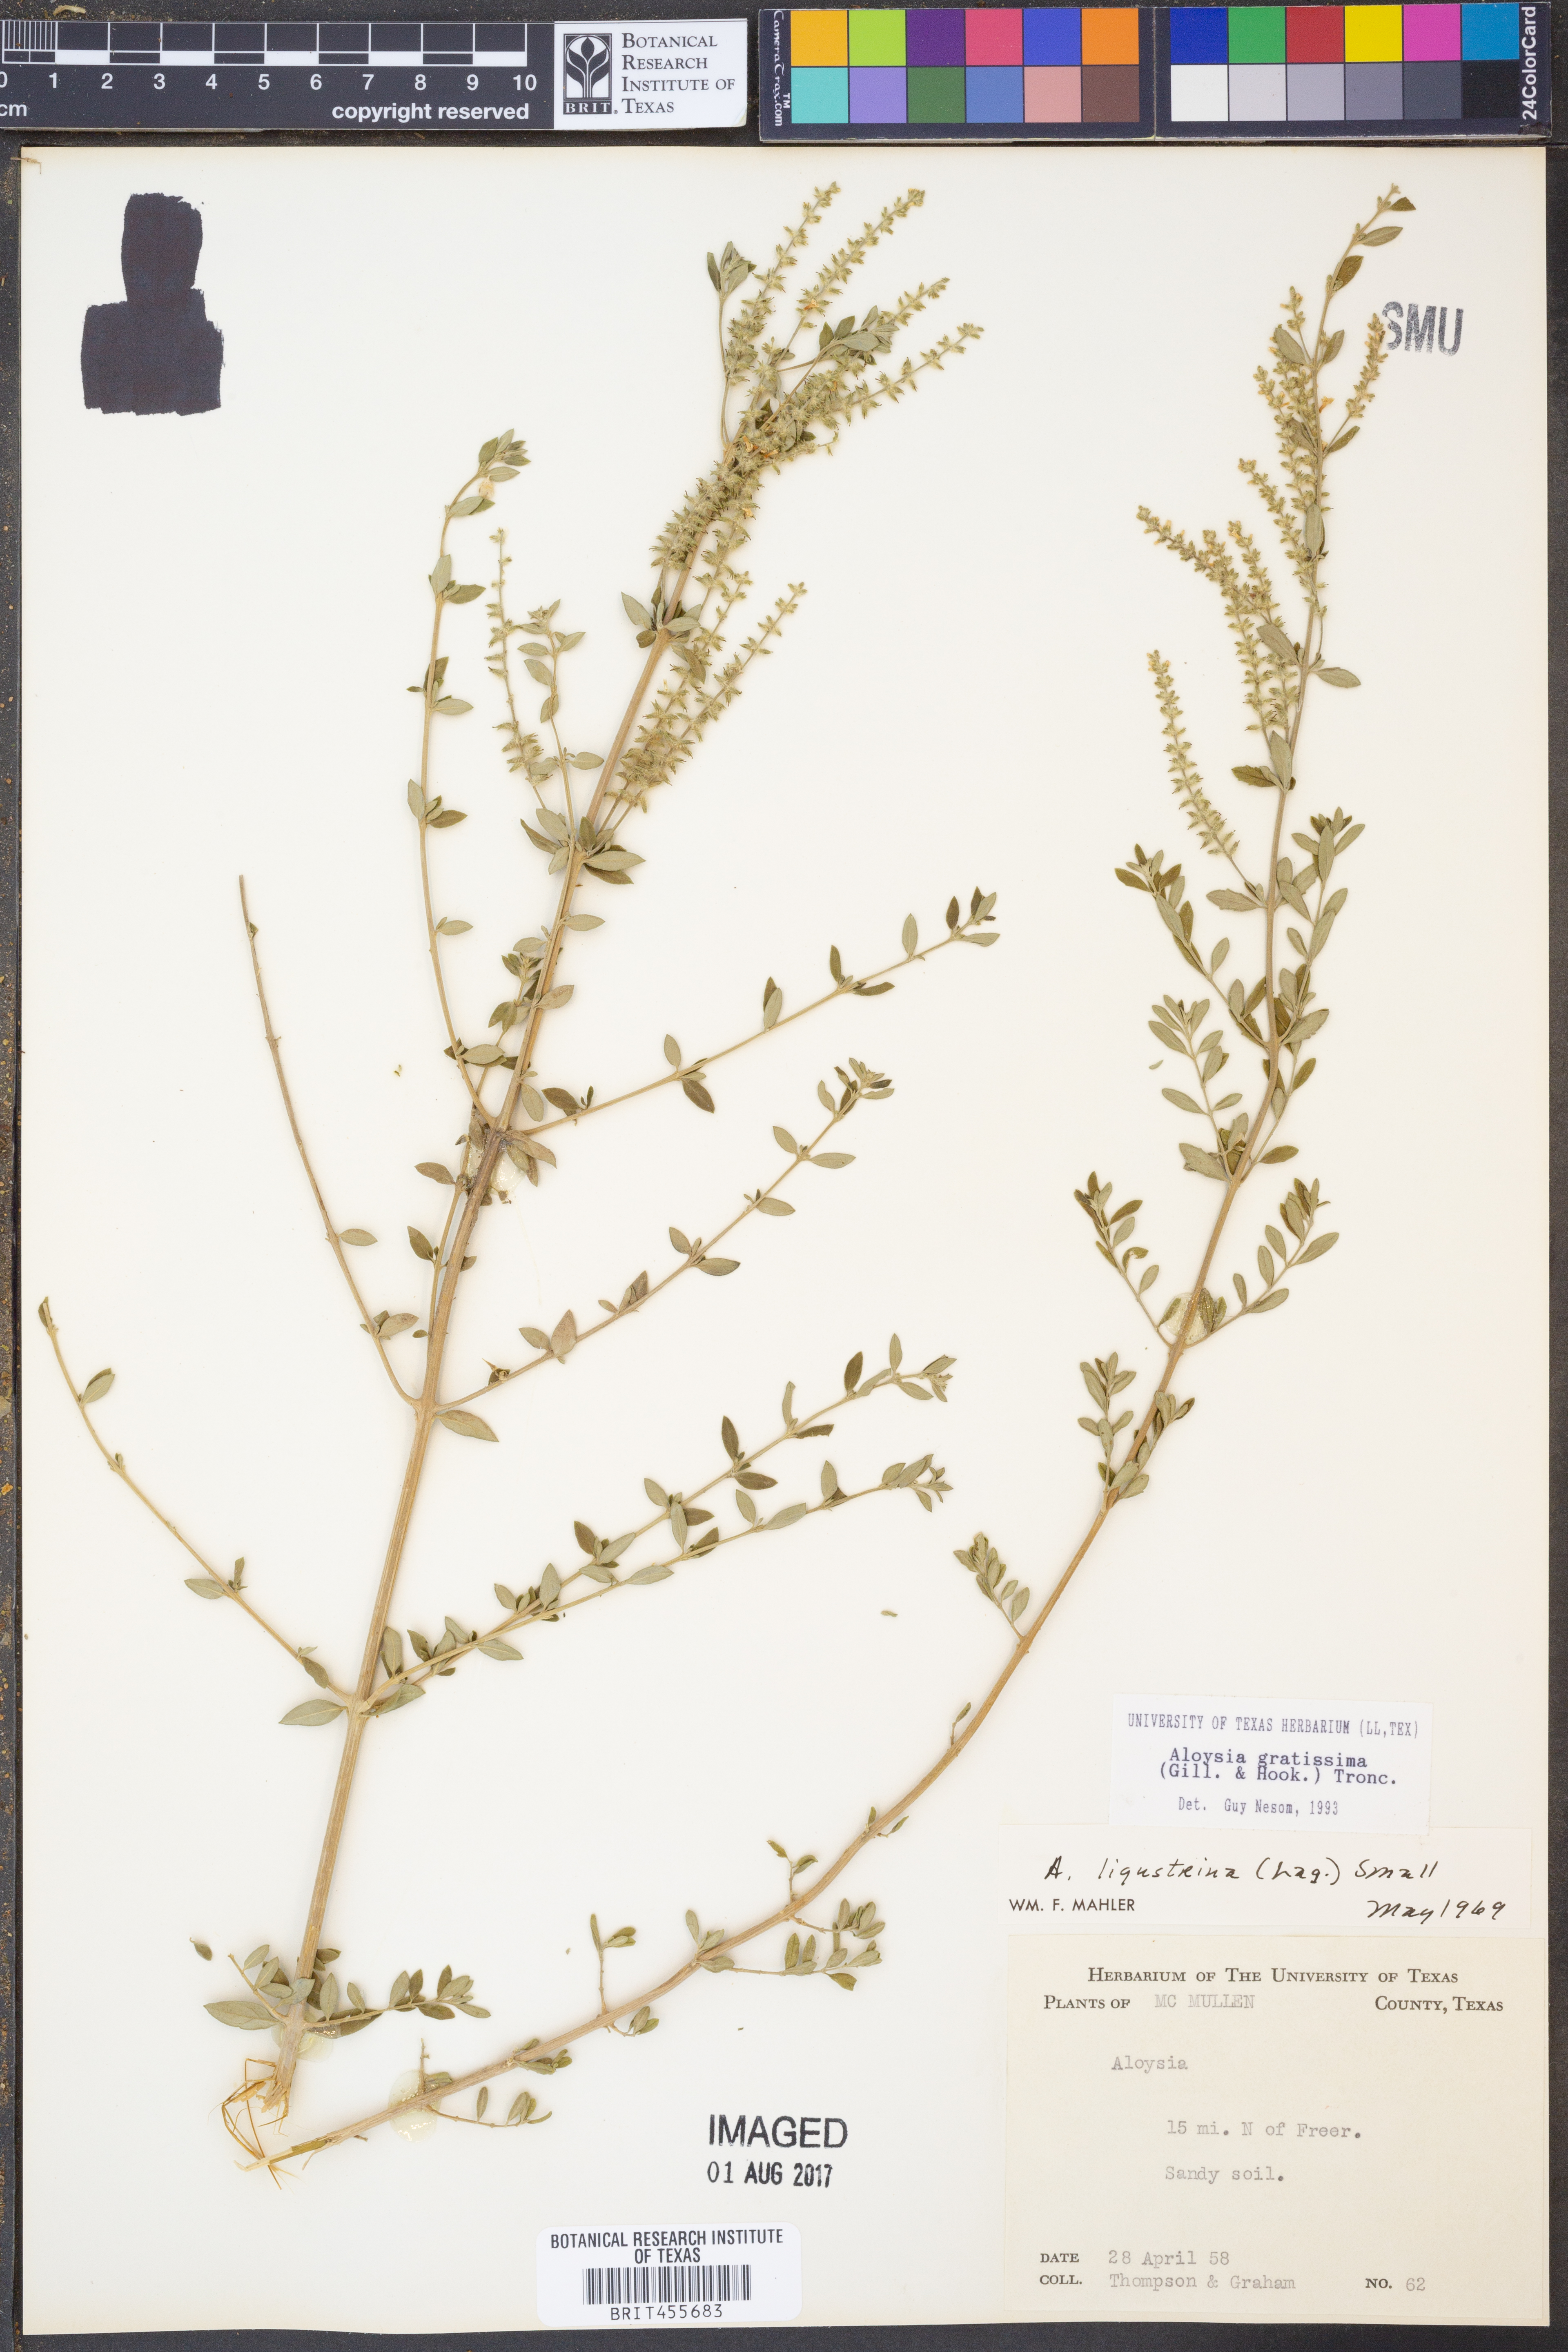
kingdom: Plantae
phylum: Tracheophyta
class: Magnoliopsida
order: Lamiales
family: Verbenaceae
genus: Aloysia
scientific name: Aloysia gratissima
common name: Common bee-brush
